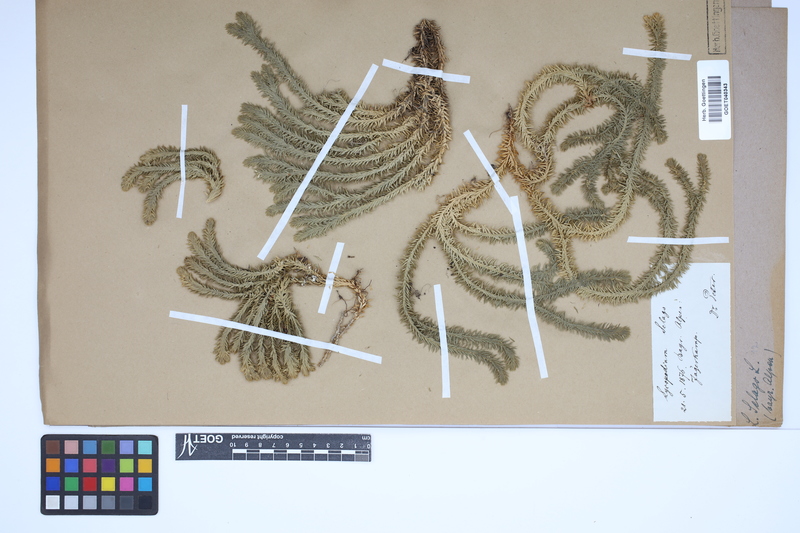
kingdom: Plantae
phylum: Tracheophyta
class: Lycopodiopsida
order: Lycopodiales
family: Lycopodiaceae
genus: Huperzia
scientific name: Huperzia selago
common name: Northern firmoss
